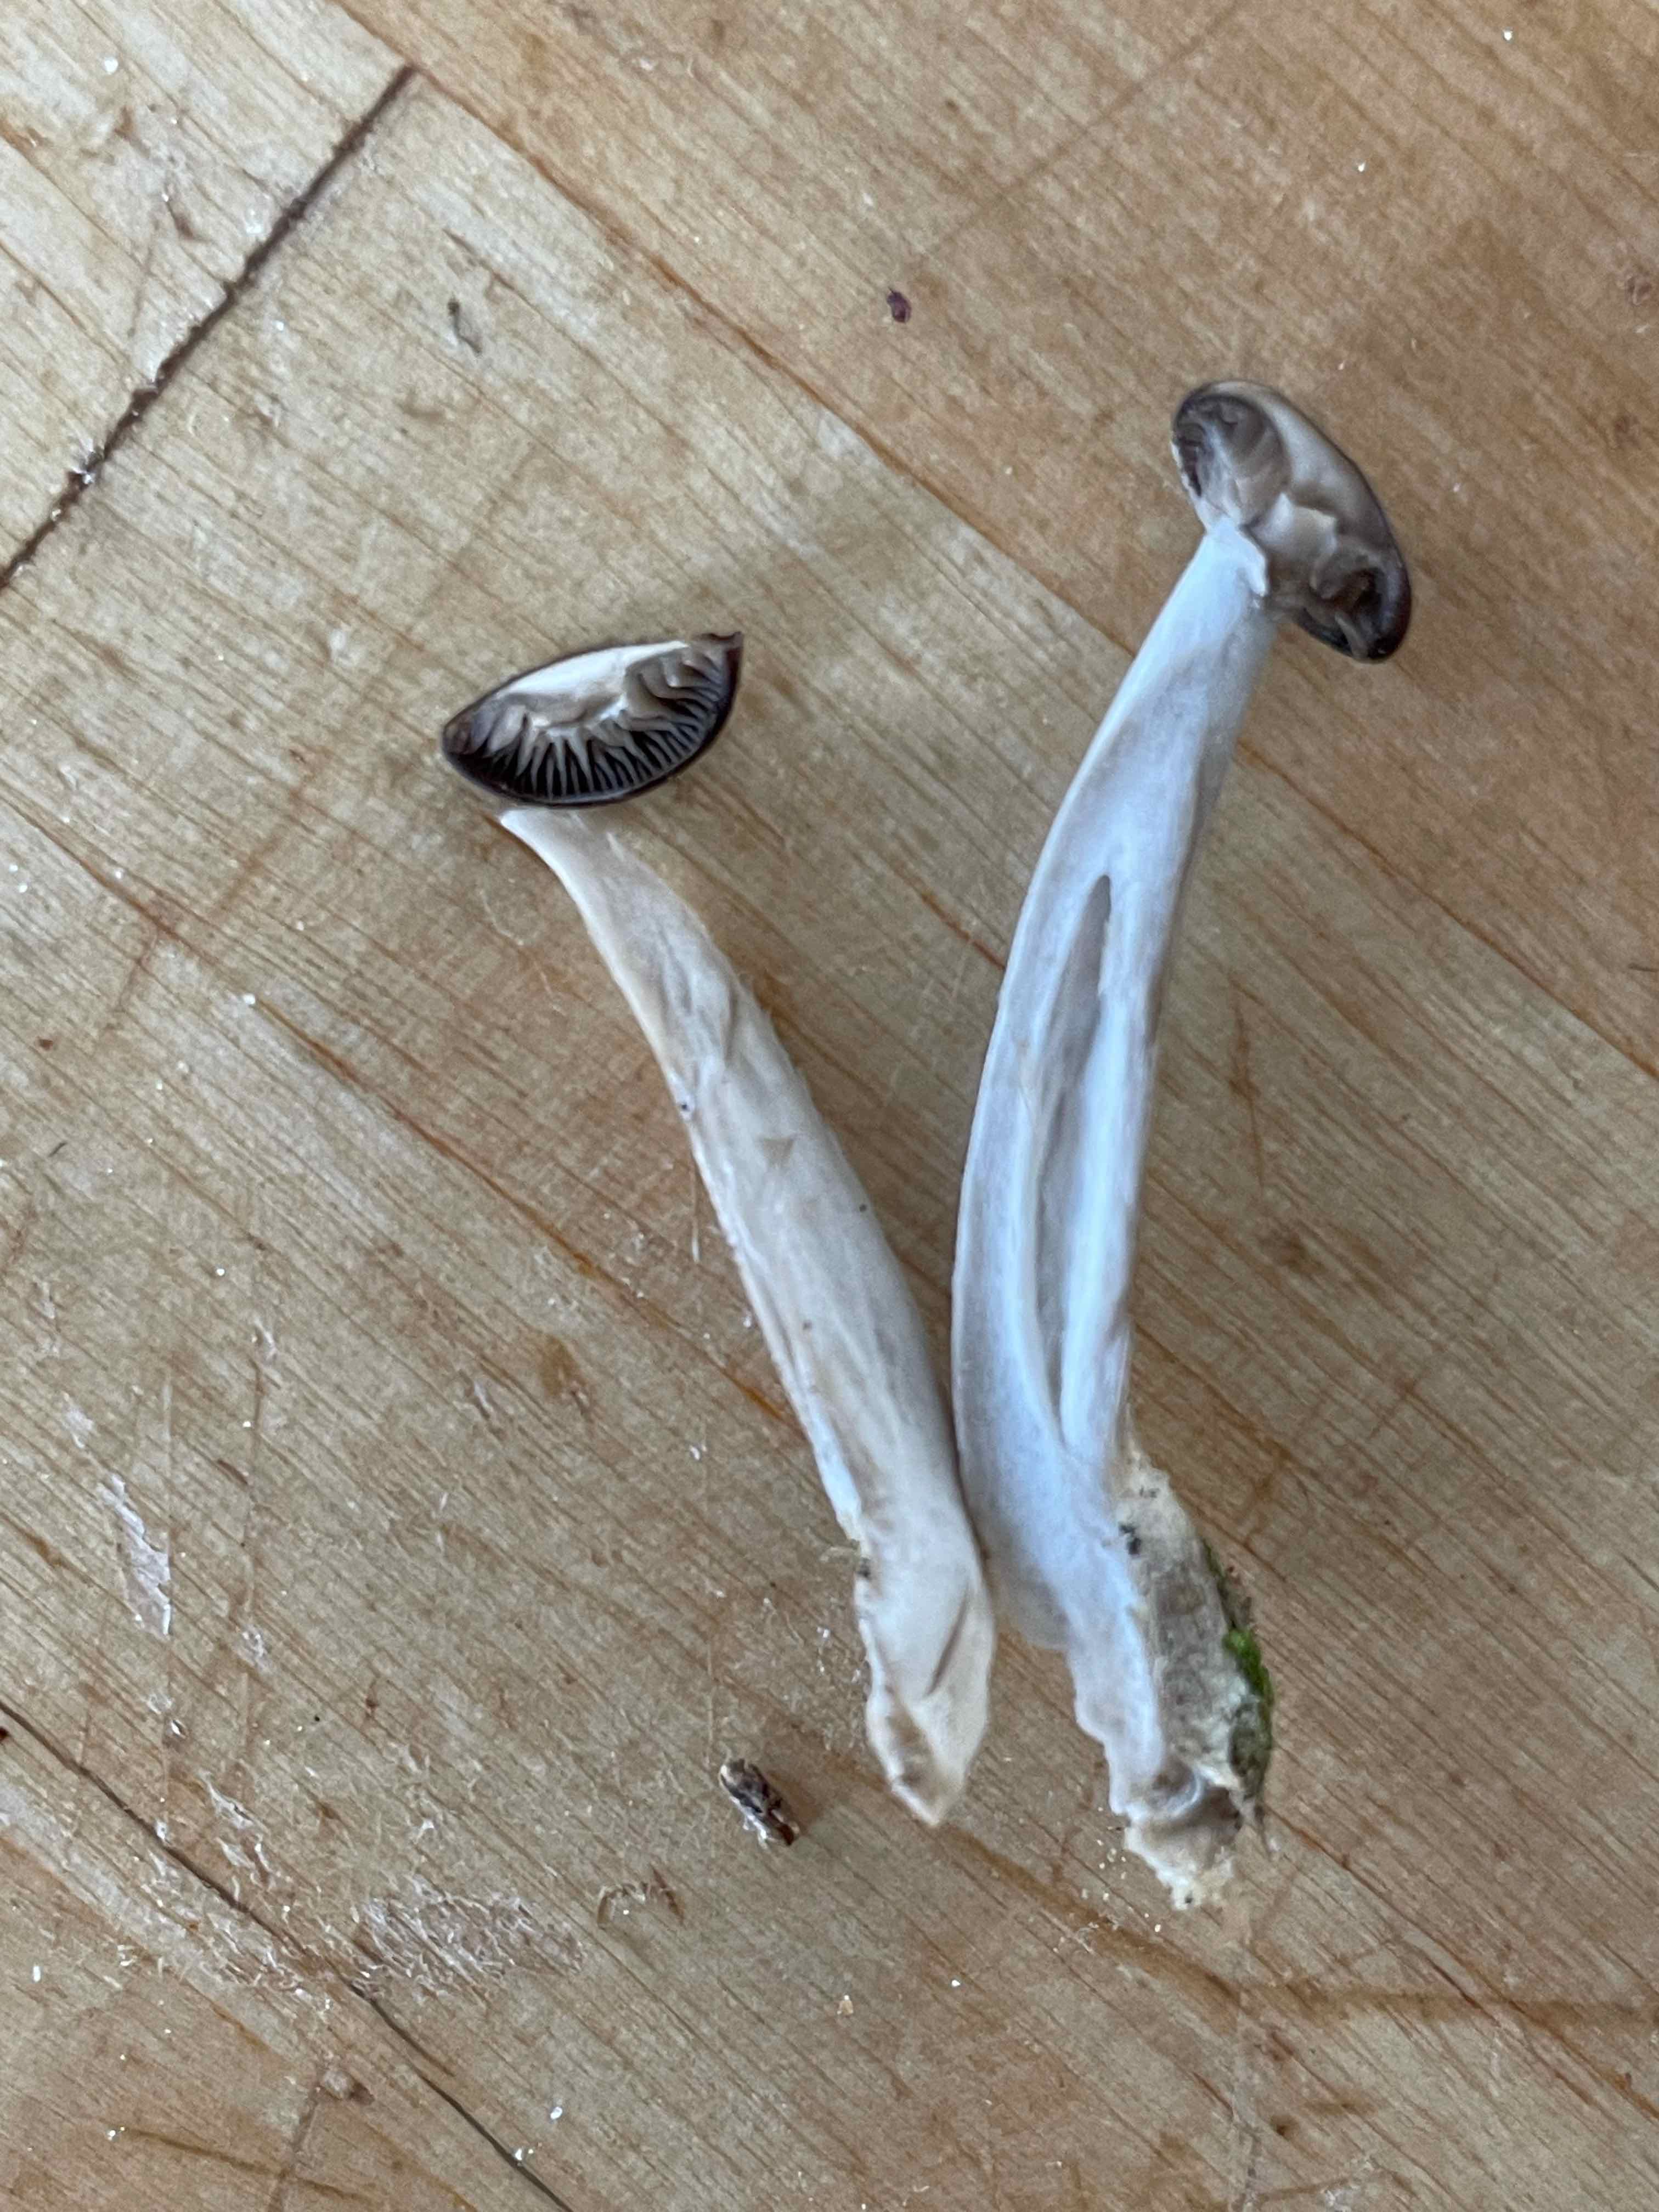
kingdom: Fungi
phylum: Basidiomycota
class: Agaricomycetes
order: Agaricales
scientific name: Agaricales
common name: champignonordenen
